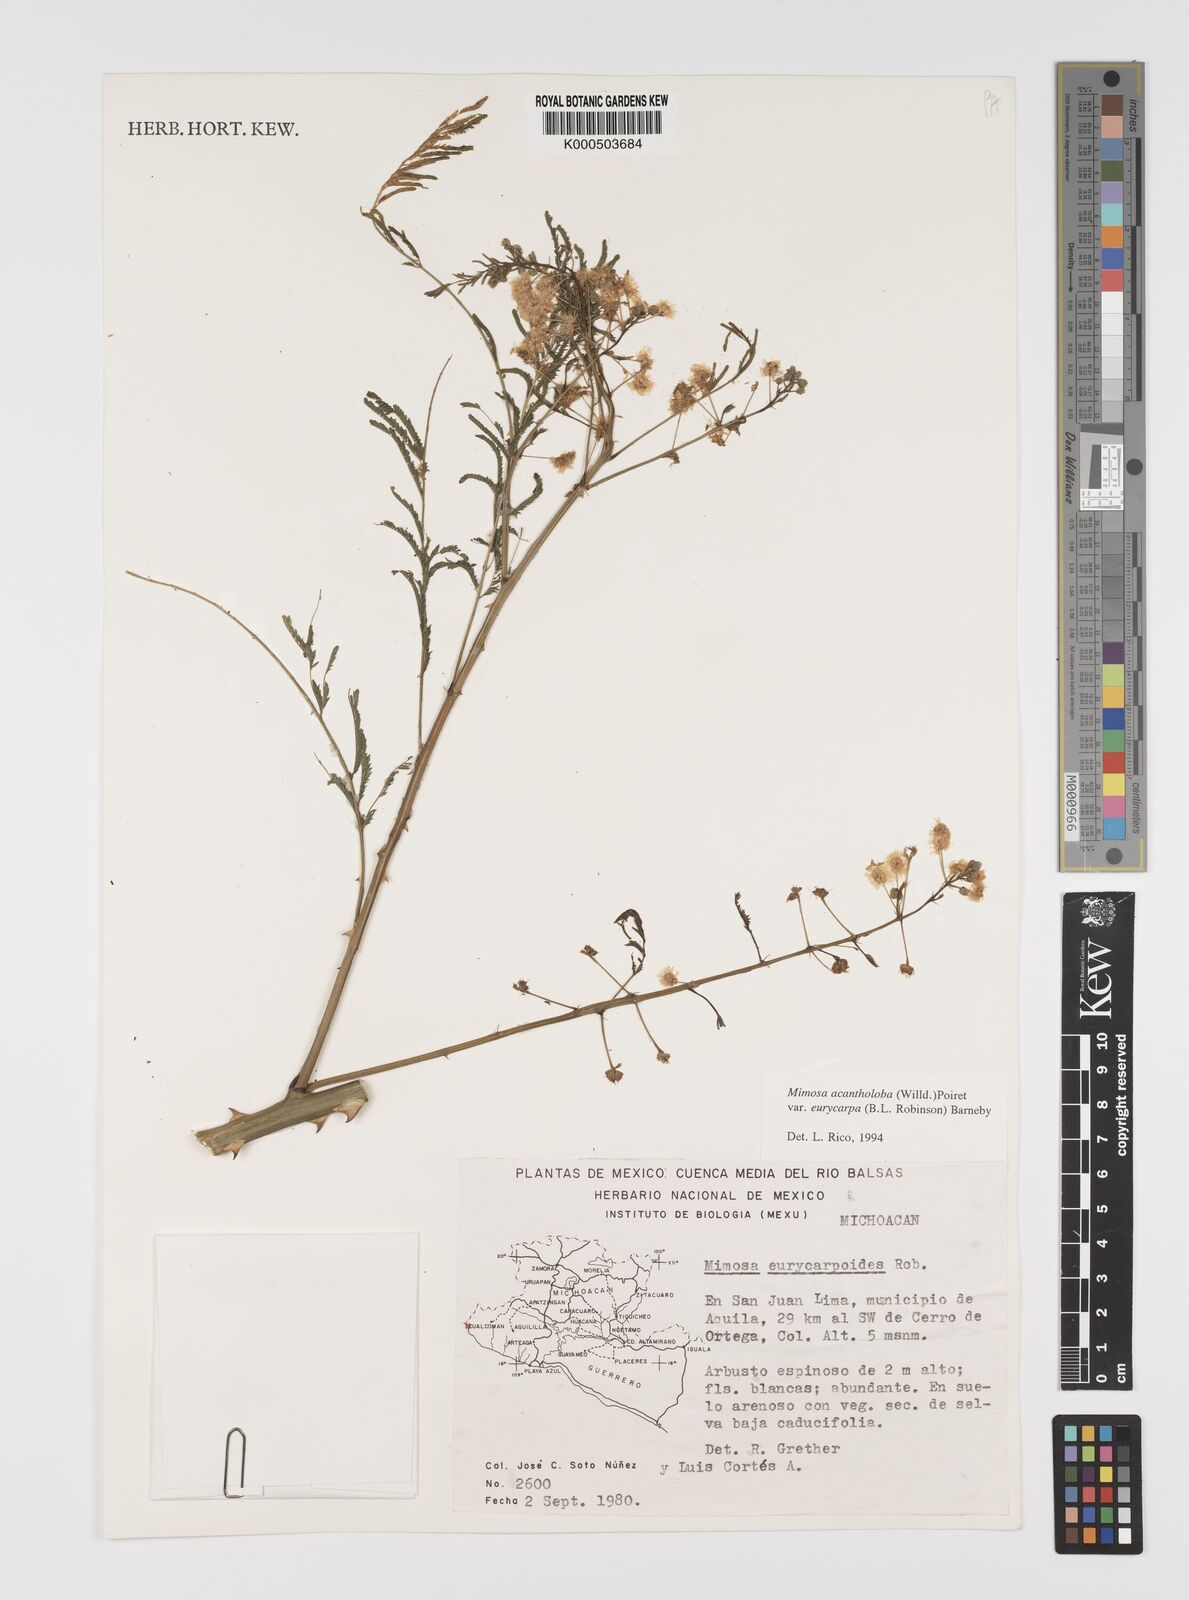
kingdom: Plantae
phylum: Tracheophyta
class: Magnoliopsida
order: Fabales
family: Fabaceae
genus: Mimosa
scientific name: Mimosa acantholoba
